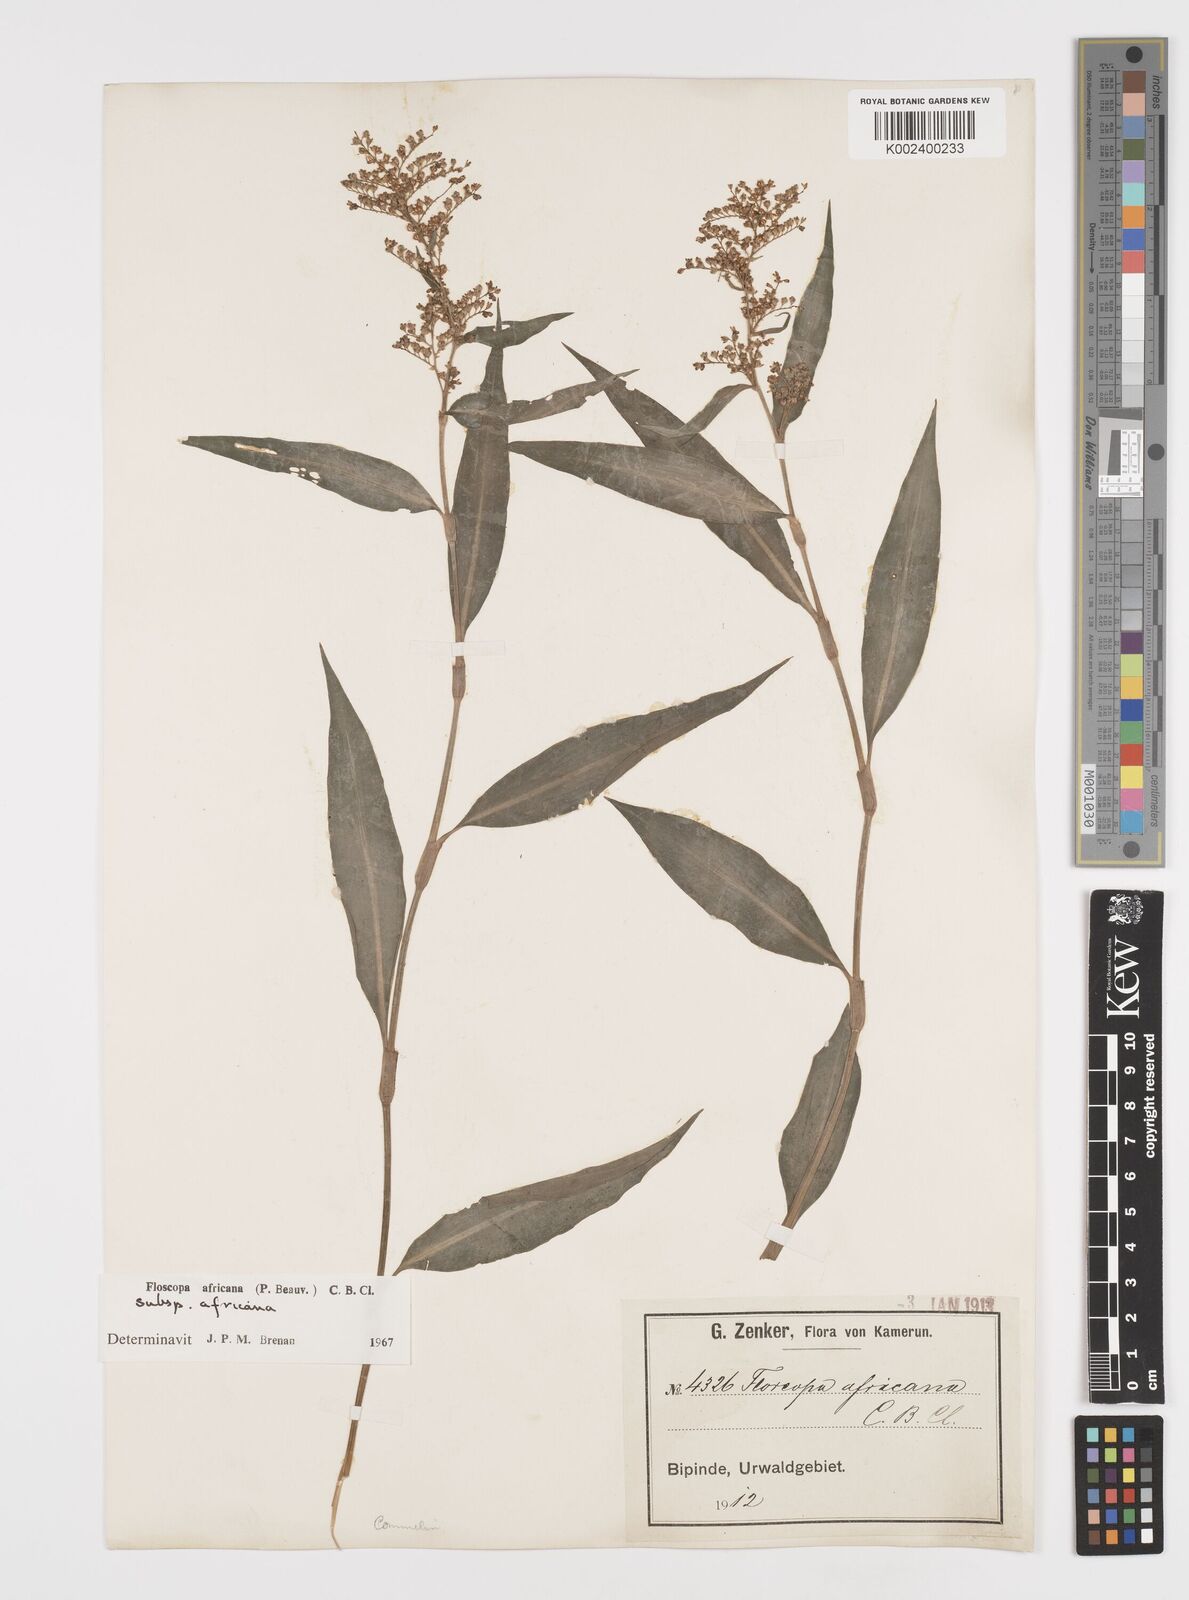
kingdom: Plantae
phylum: Tracheophyta
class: Liliopsida
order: Commelinales
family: Commelinaceae
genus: Floscopa
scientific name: Floscopa africana
